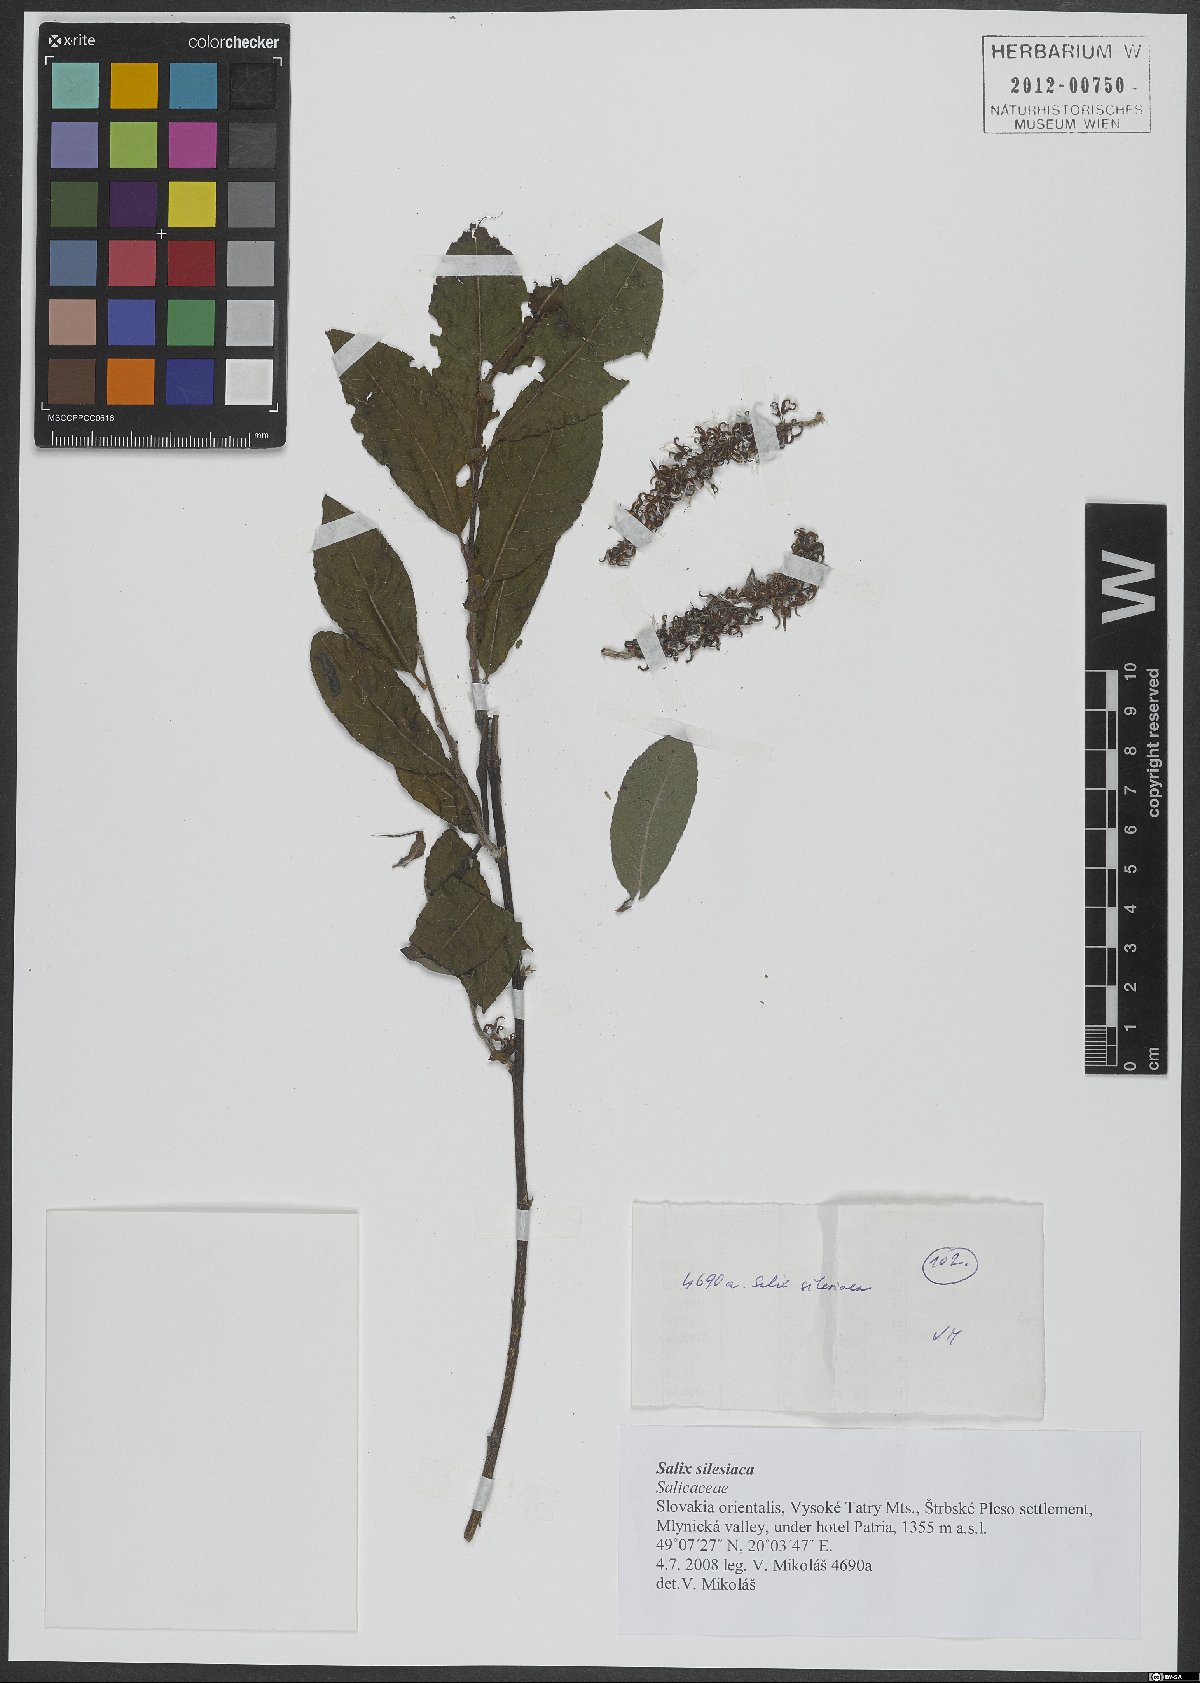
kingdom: Plantae
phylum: Tracheophyta
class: Magnoliopsida
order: Malpighiales
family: Salicaceae
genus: Salix
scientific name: Salix silesiaca
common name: Silesian willow
